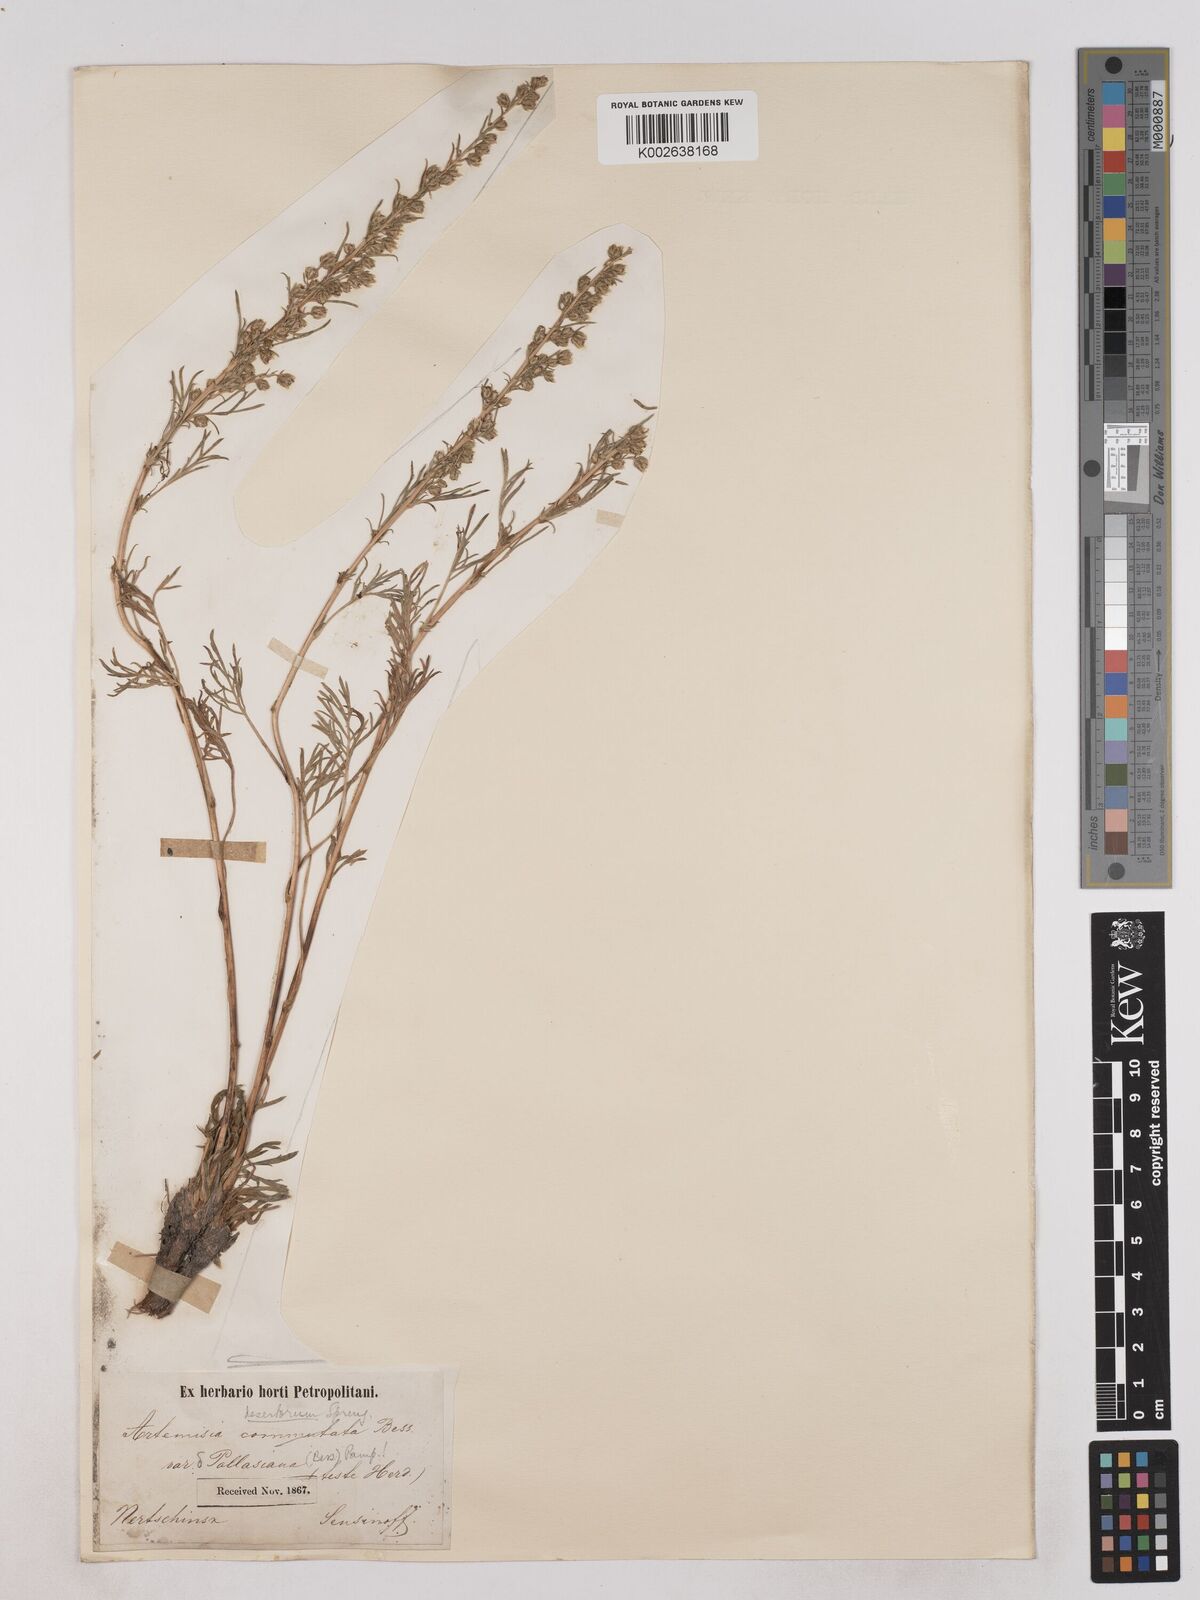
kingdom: Plantae
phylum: Tracheophyta
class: Magnoliopsida
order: Asterales
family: Asteraceae
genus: Artemisia
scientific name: Artemisia pubescens
